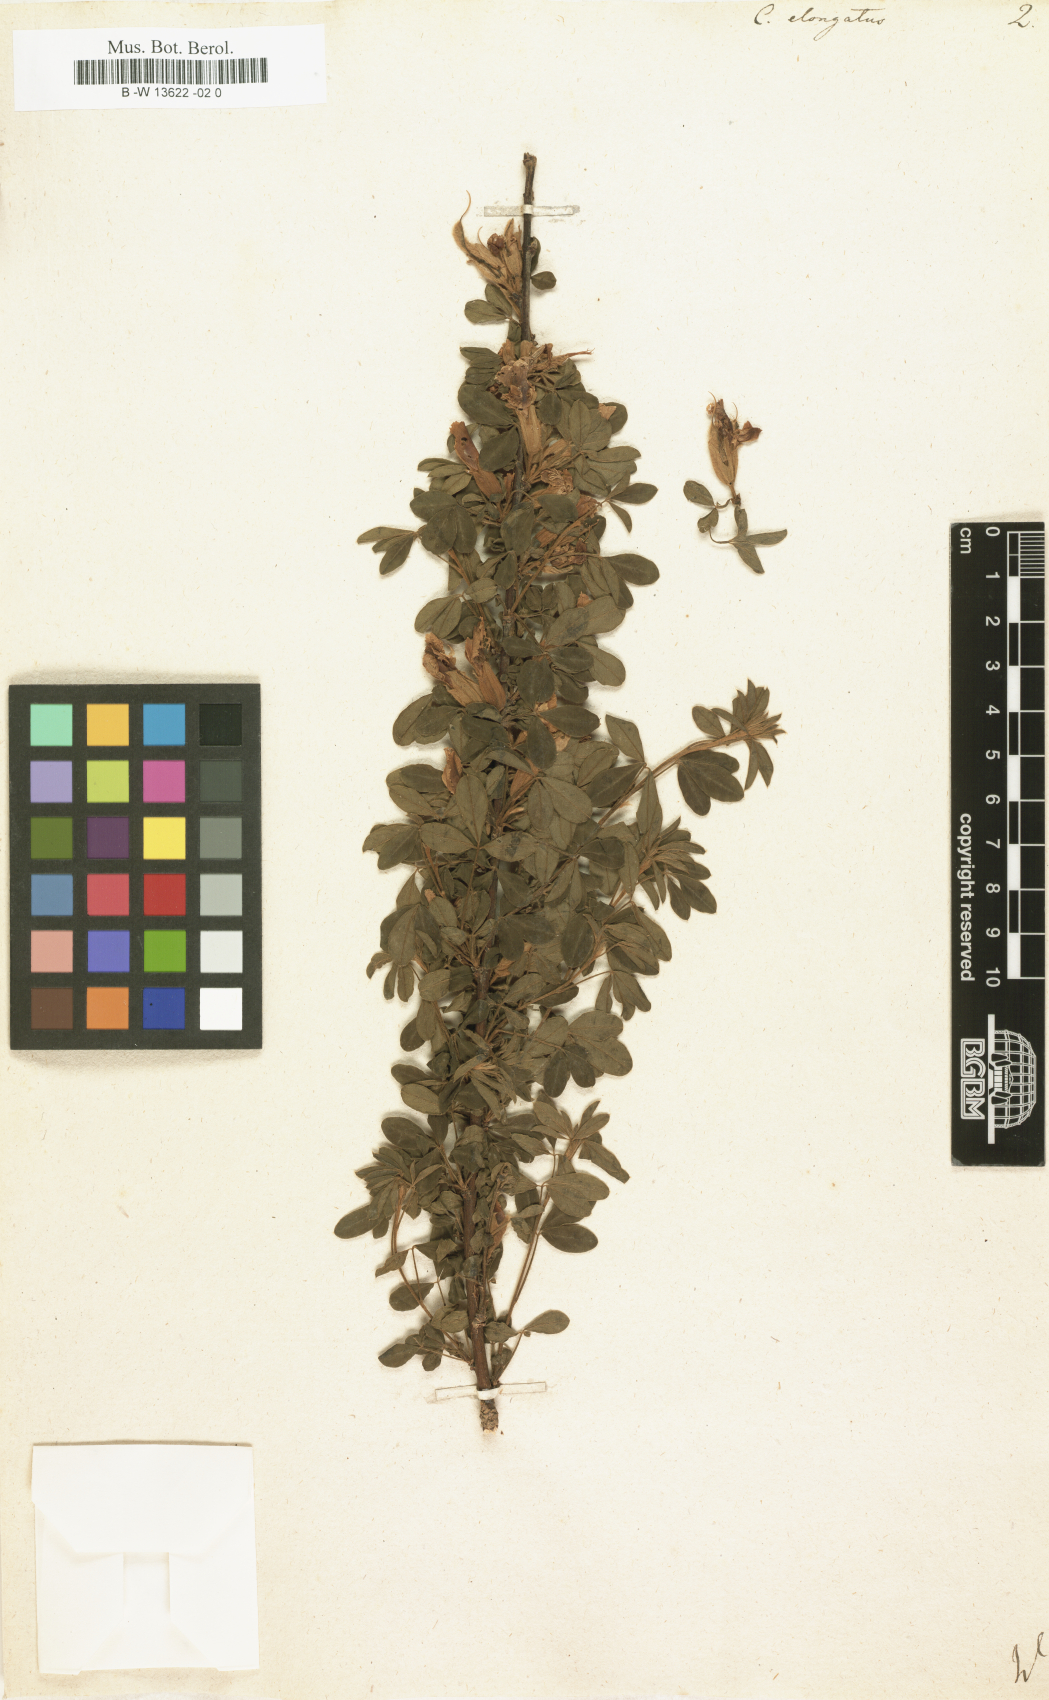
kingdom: Plantae
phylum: Tracheophyta
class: Magnoliopsida
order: Fabales
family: Fabaceae
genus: Chamaecytisus
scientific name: Chamaecytisus
